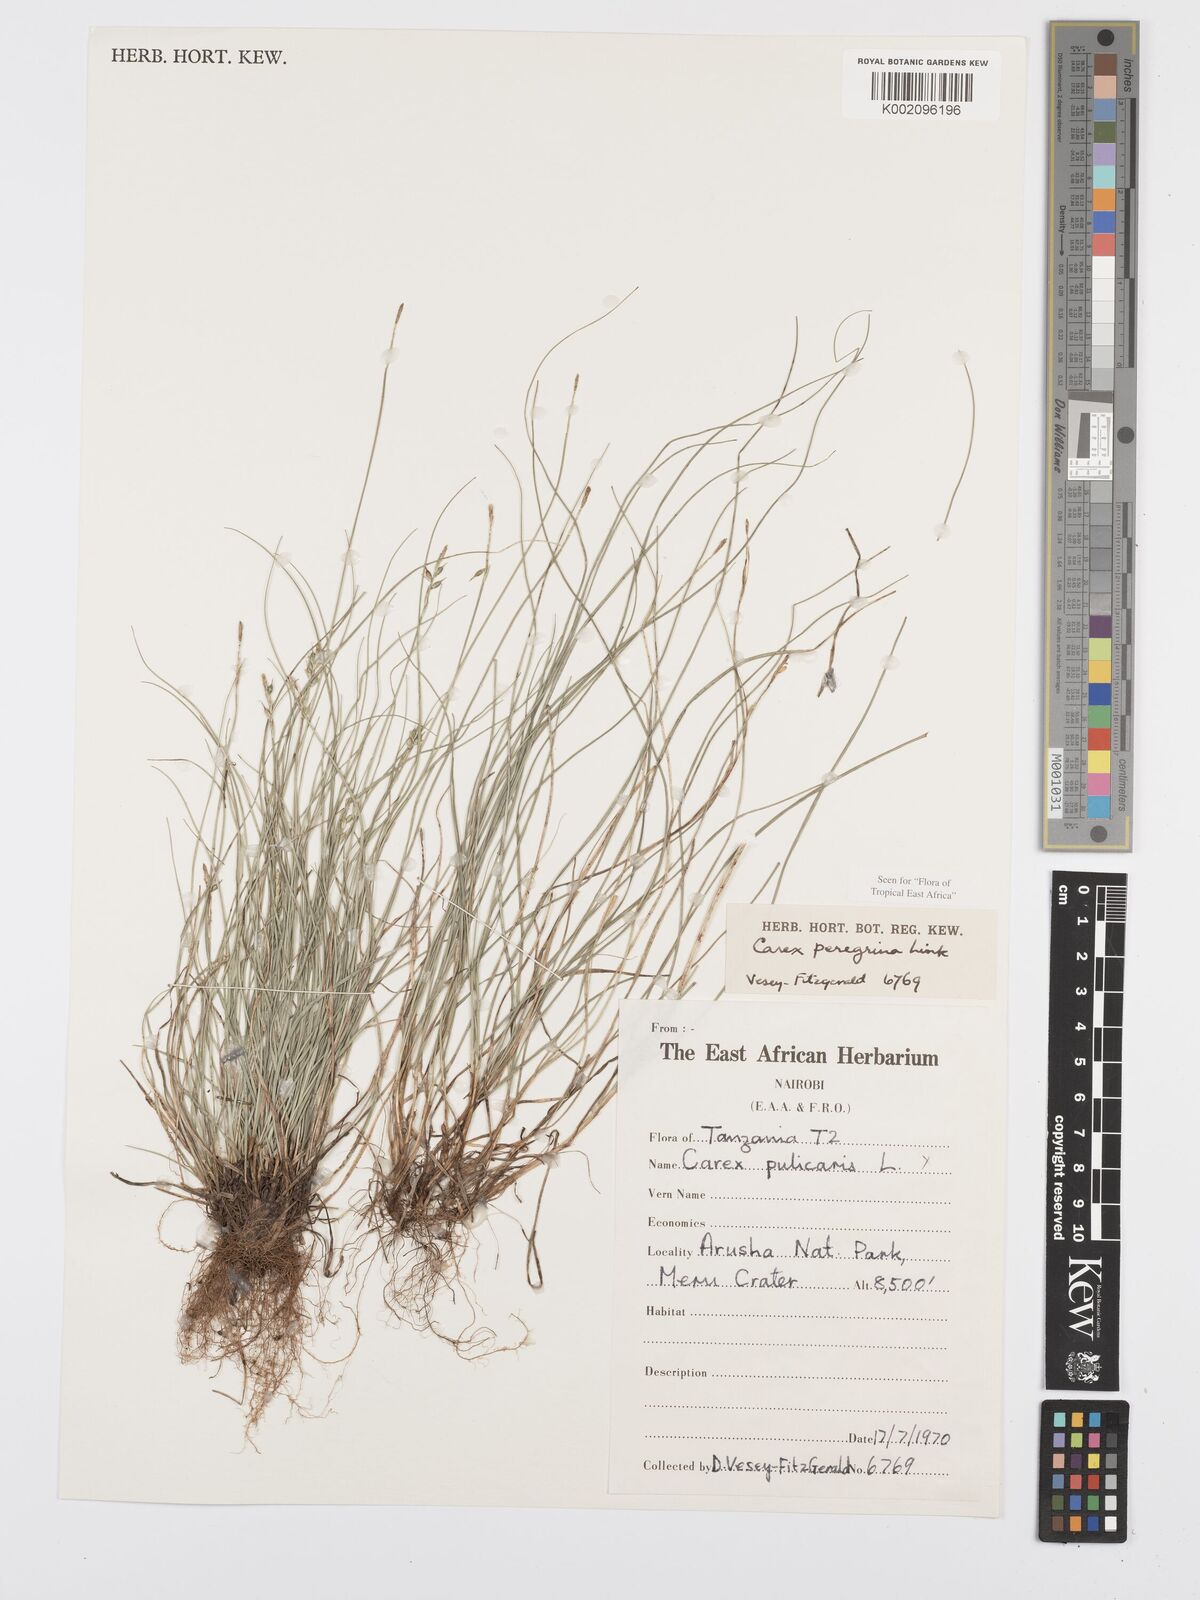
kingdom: Plantae
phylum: Tracheophyta
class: Liliopsida
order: Poales
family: Cyperaceae
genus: Carex
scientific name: Carex peregrina
